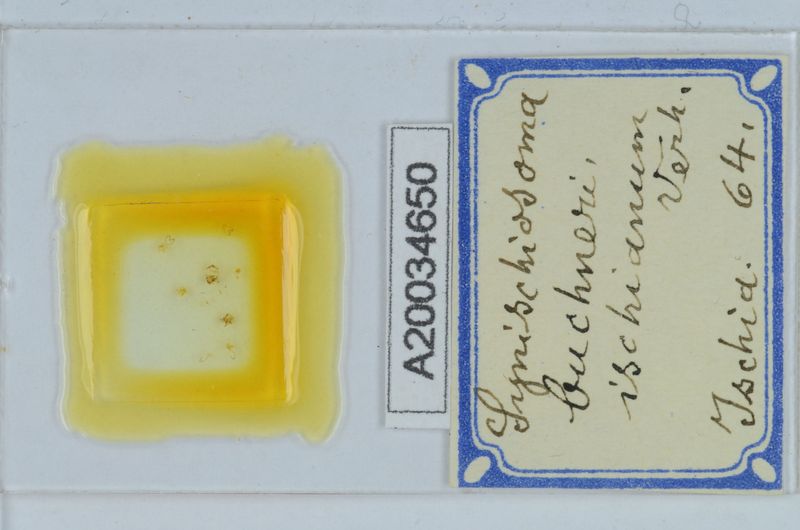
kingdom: Animalia
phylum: Arthropoda
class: Diplopoda
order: Chordeumatida
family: Craspedosomatidae
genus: Synischiosoma
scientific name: Synischiosoma buchneri
